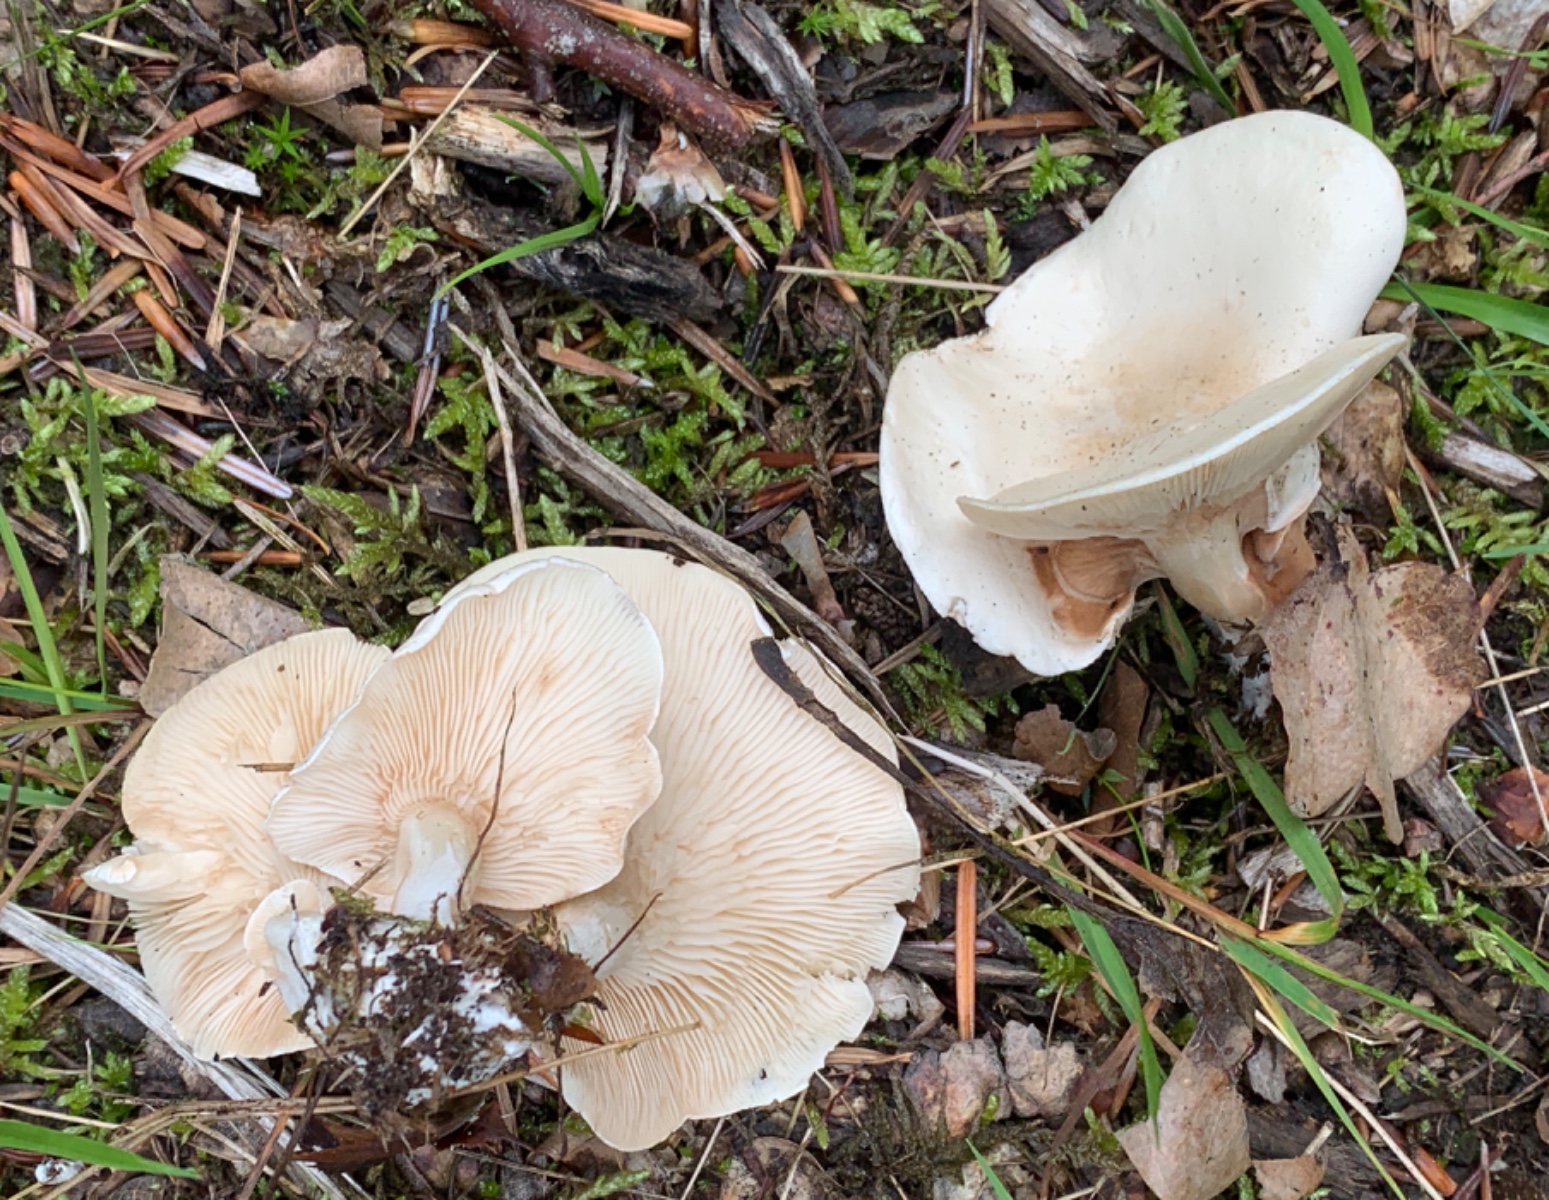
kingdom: Fungi
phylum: Basidiomycota
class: Agaricomycetes
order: Agaricales
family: Entolomataceae
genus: Clitopilus
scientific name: Clitopilus prunulus
